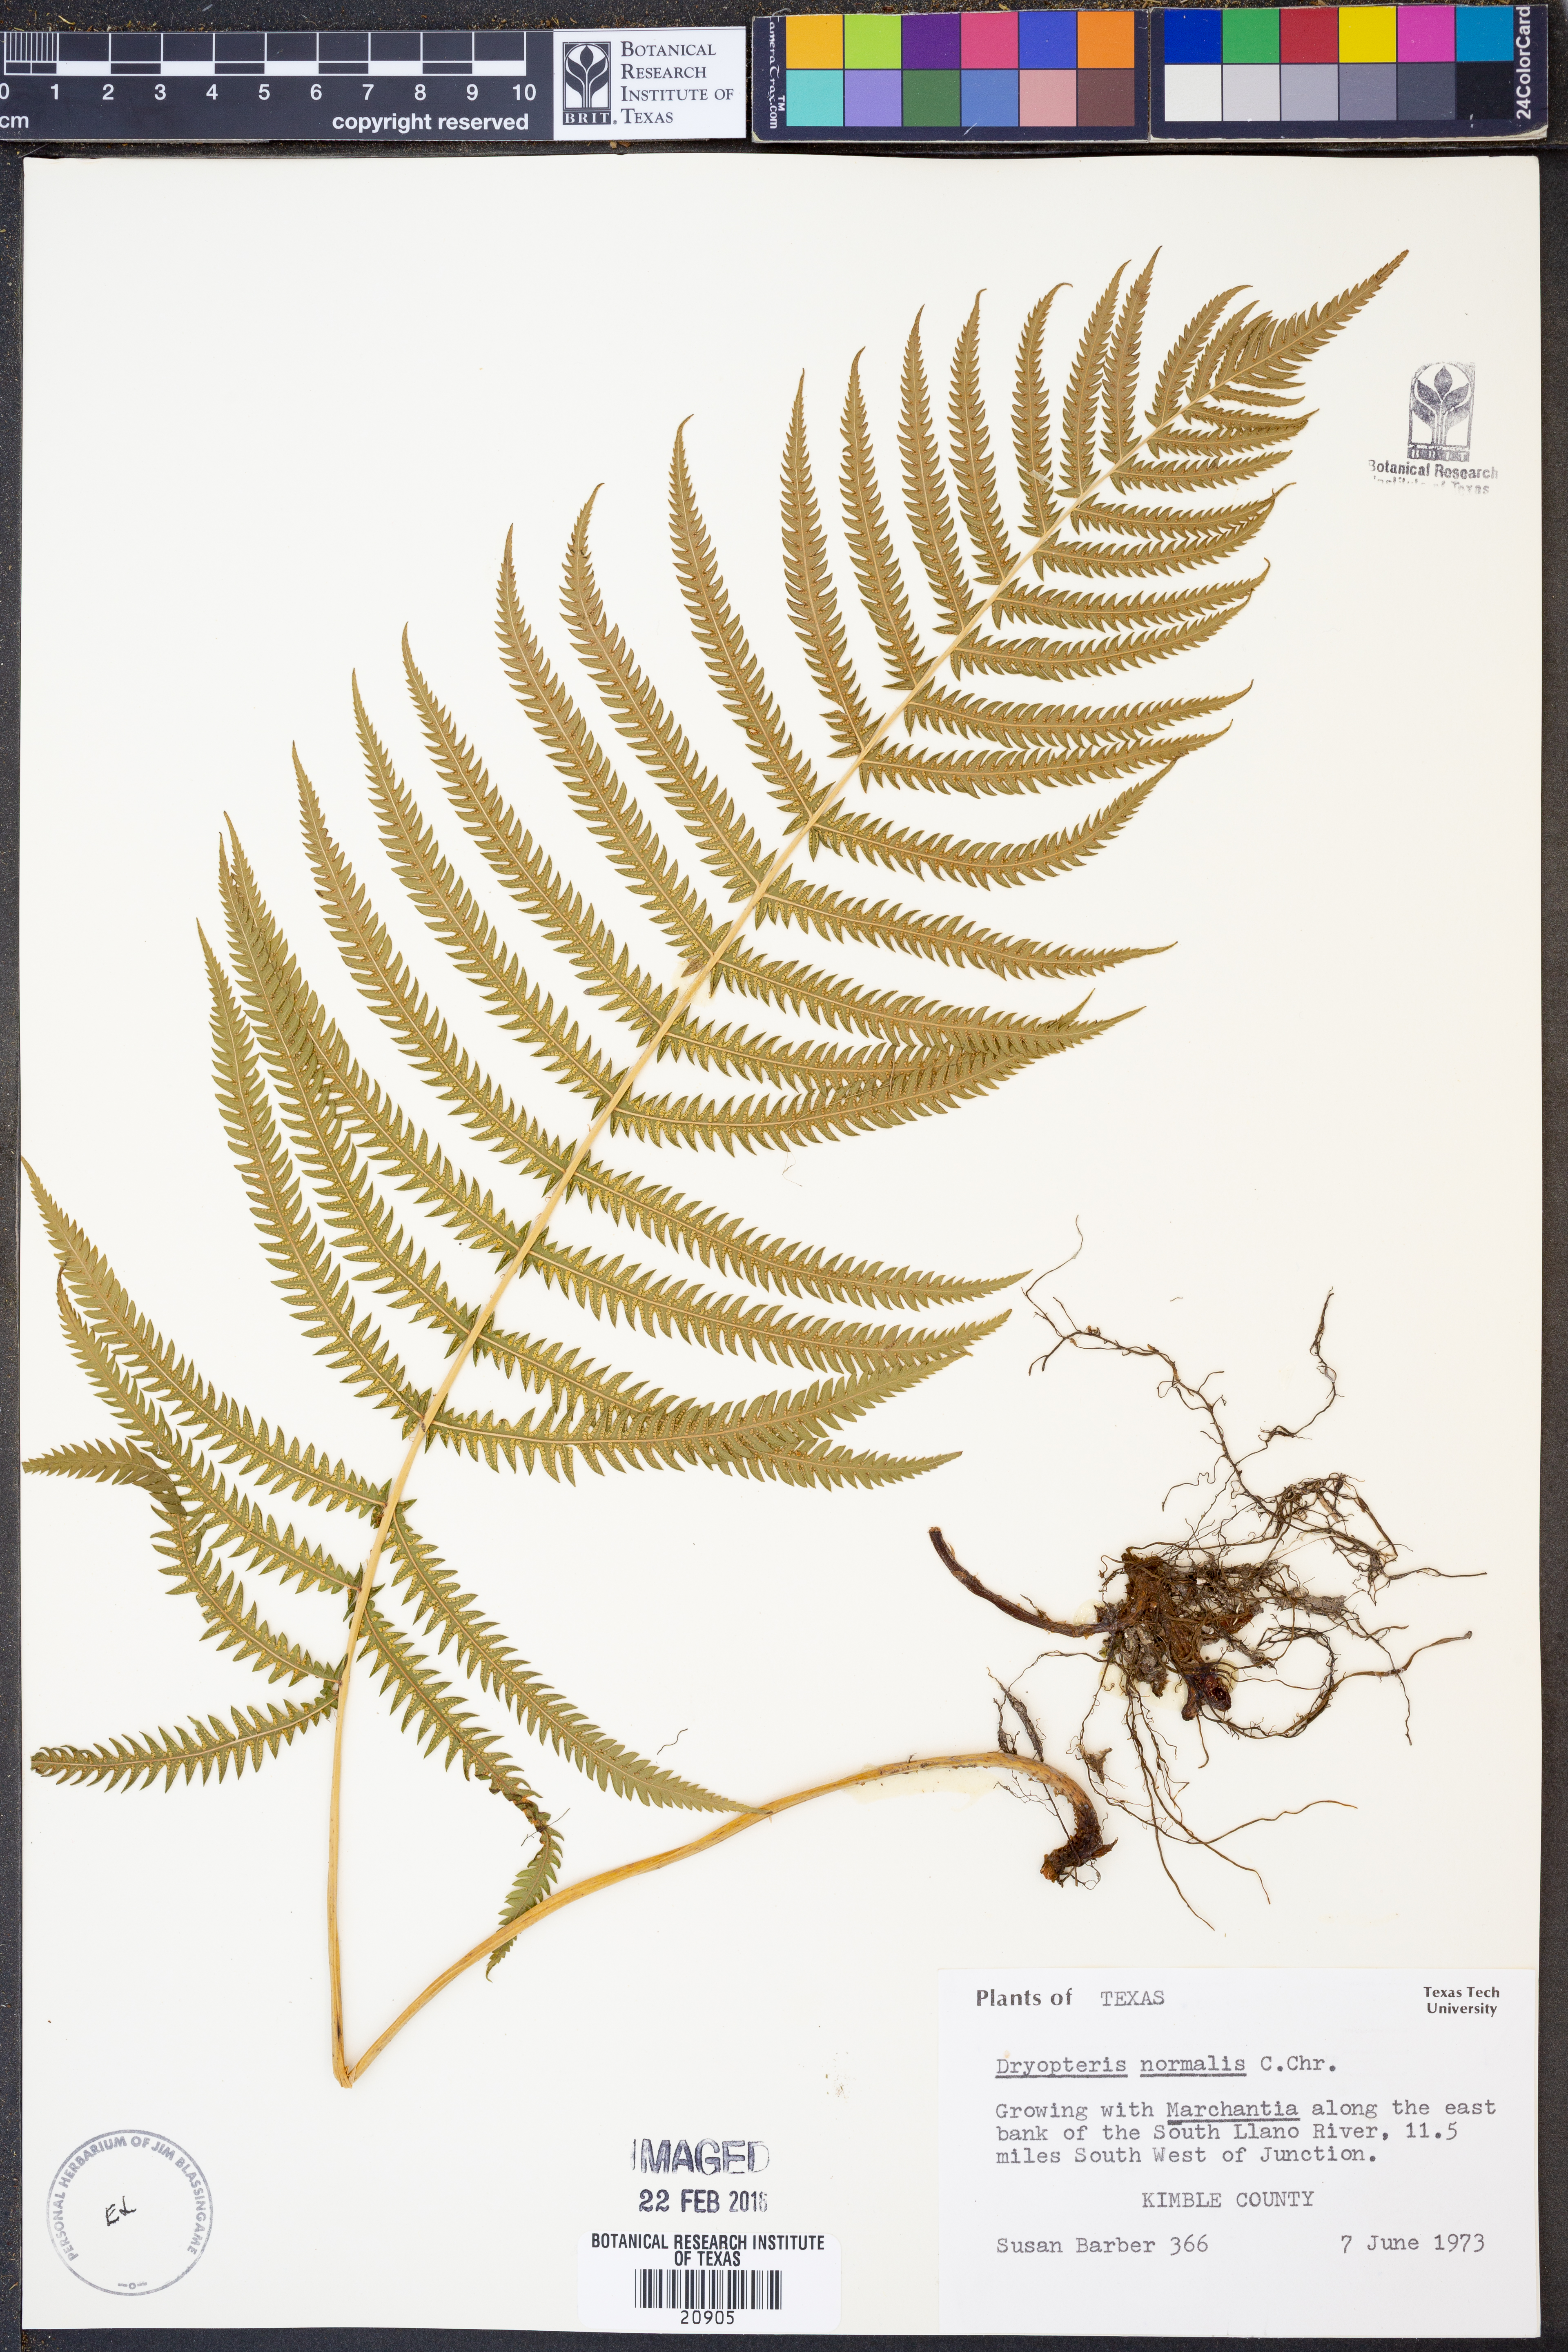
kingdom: Plantae
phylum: Tracheophyta
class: Polypodiopsida
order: Polypodiales
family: Thelypteridaceae
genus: Pelazoneuron
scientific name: Pelazoneuron kunthii
